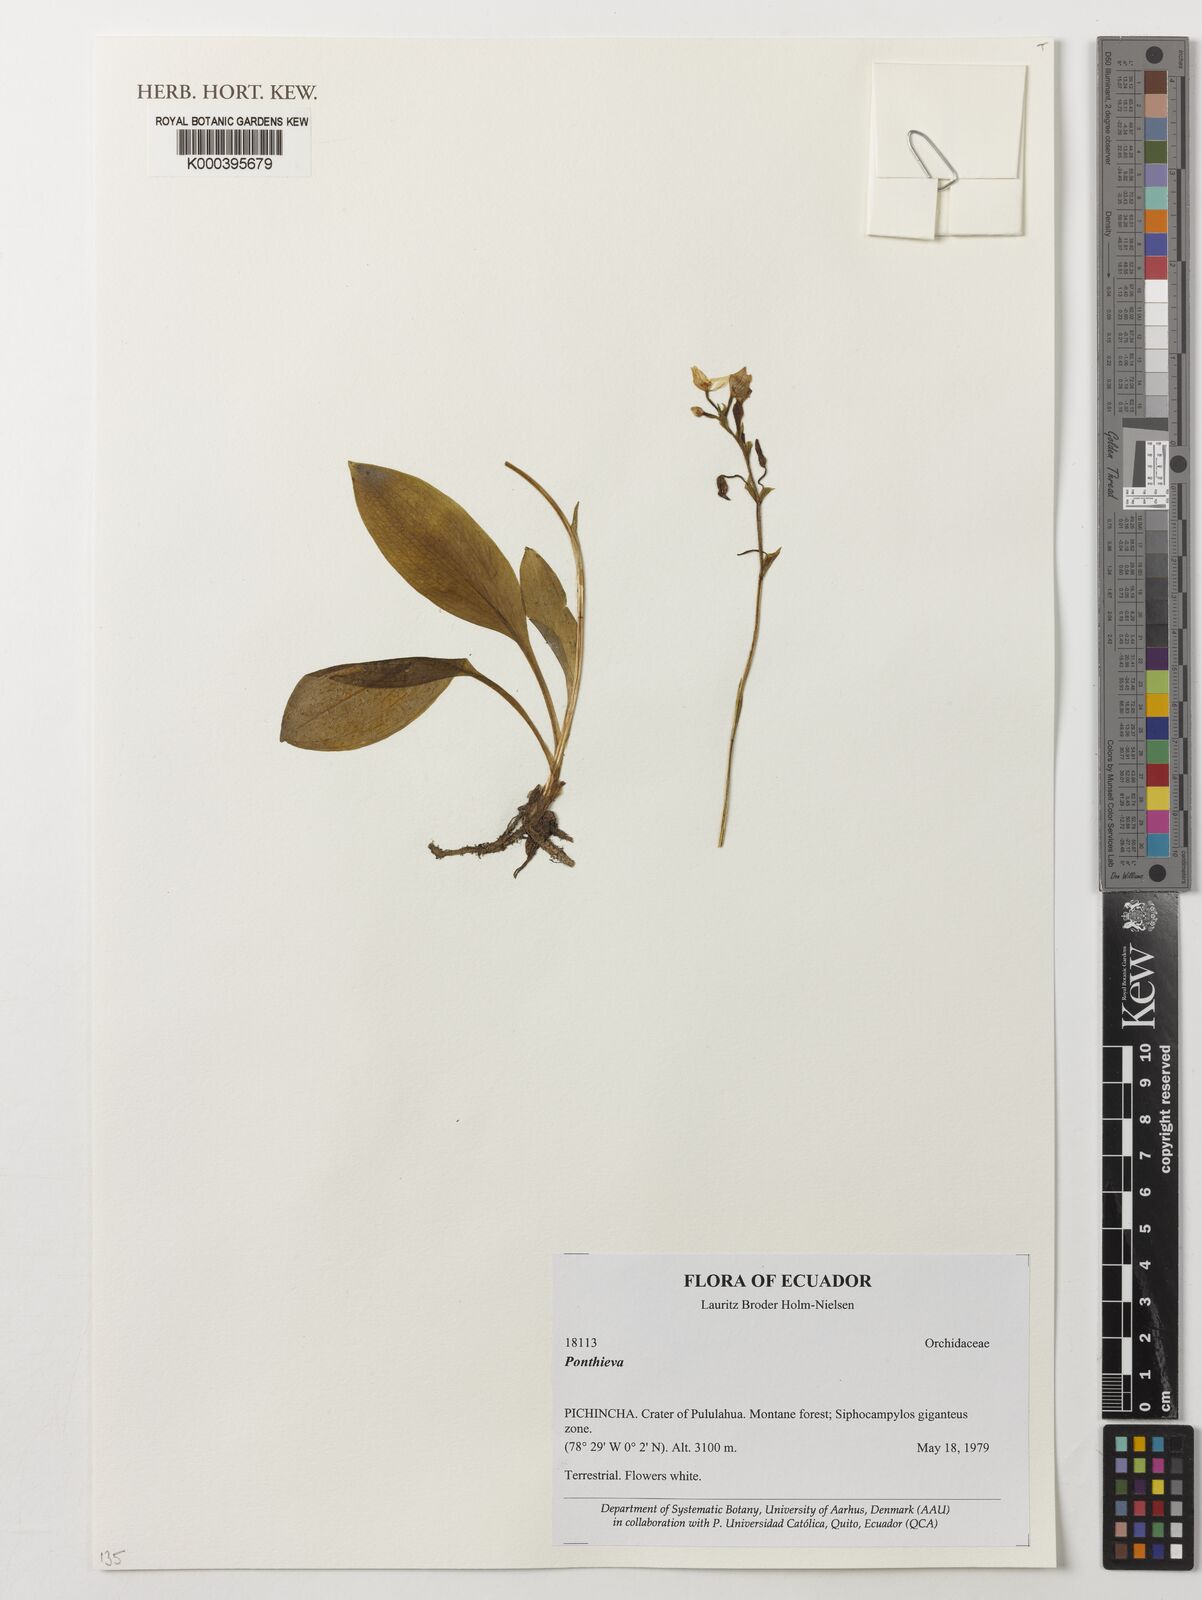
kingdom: Plantae
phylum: Tracheophyta
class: Liliopsida
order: Asparagales
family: Orchidaceae
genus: Ponthieva
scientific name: Ponthieva
